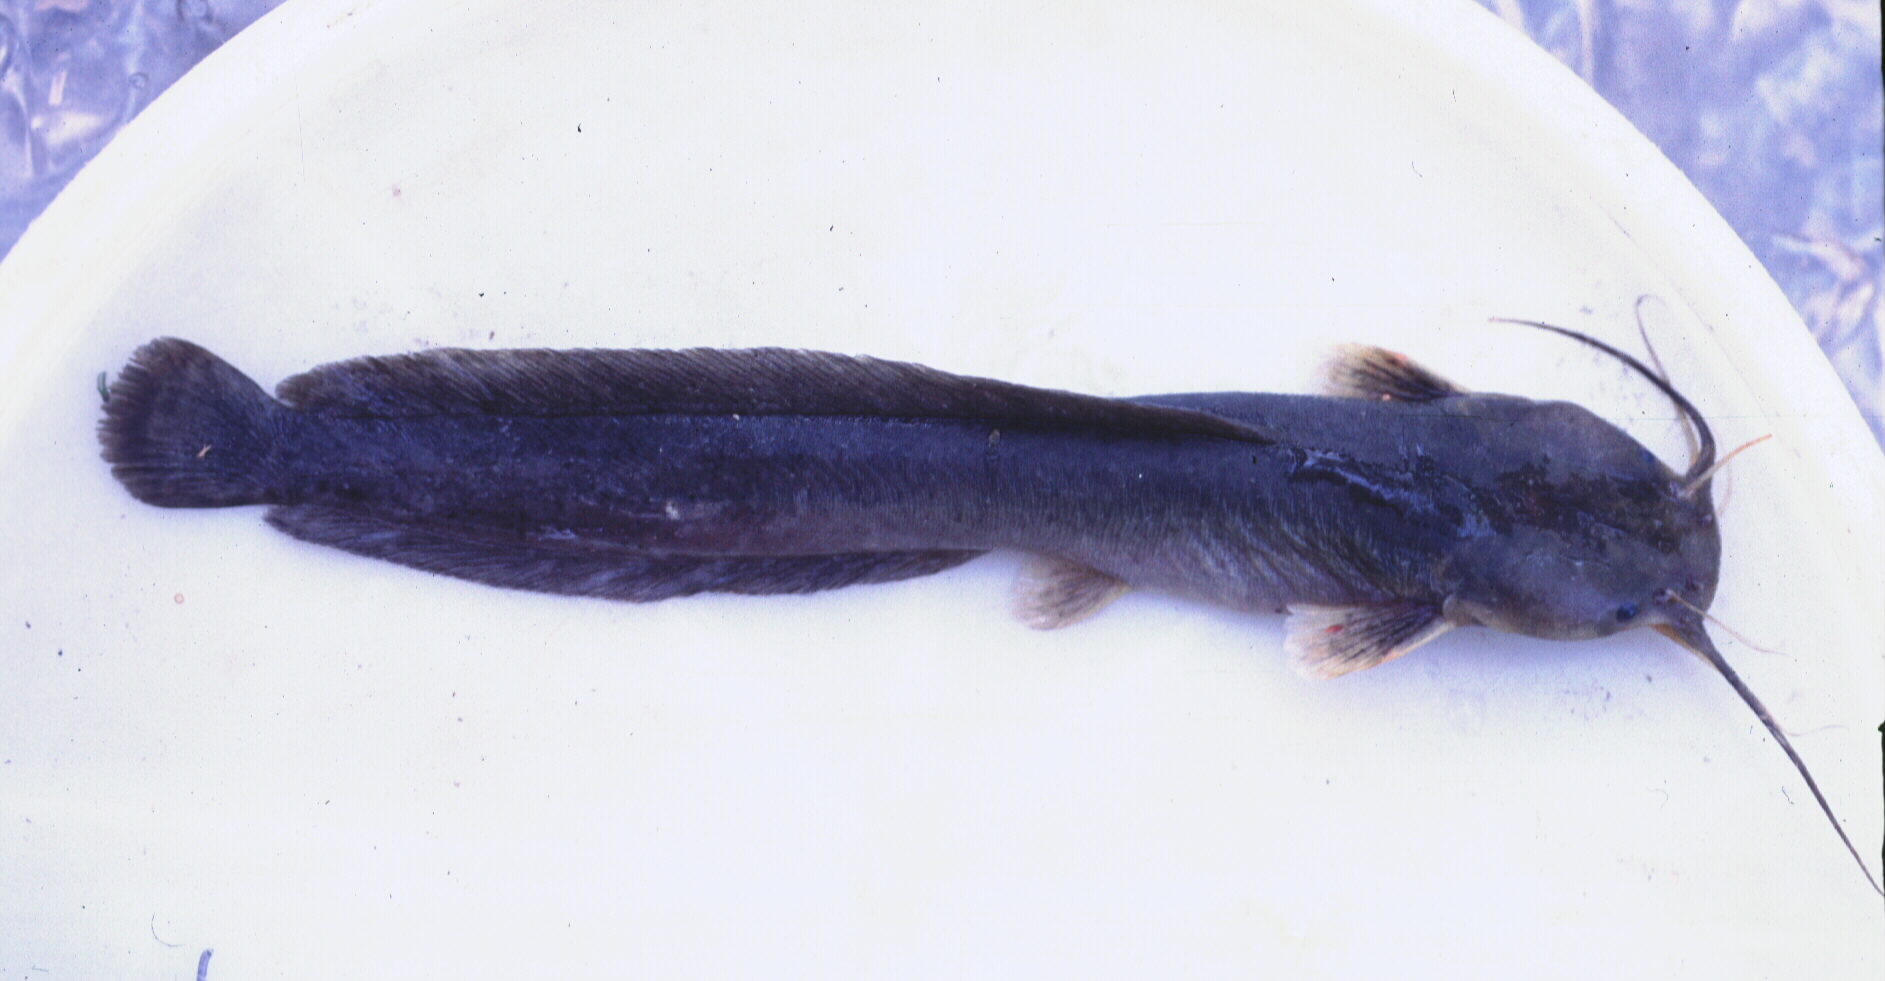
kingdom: Animalia
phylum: Chordata
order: Siluriformes
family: Clariidae
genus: Clariallabes
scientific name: Clariallabes
